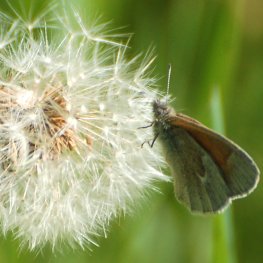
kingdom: Animalia
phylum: Arthropoda
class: Insecta
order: Lepidoptera
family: Nymphalidae
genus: Coenonympha
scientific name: Coenonympha tullia
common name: Large Heath
